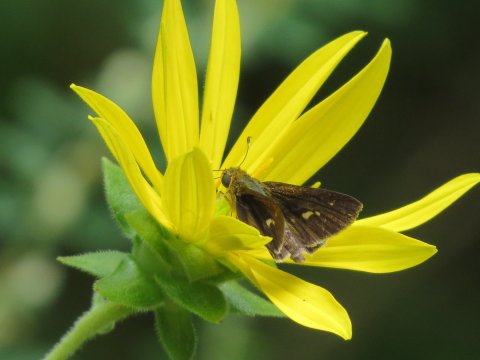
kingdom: Animalia
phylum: Arthropoda
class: Insecta
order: Lepidoptera
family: Hesperiidae
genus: Vernia
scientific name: Vernia verna
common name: Little Glassywing
